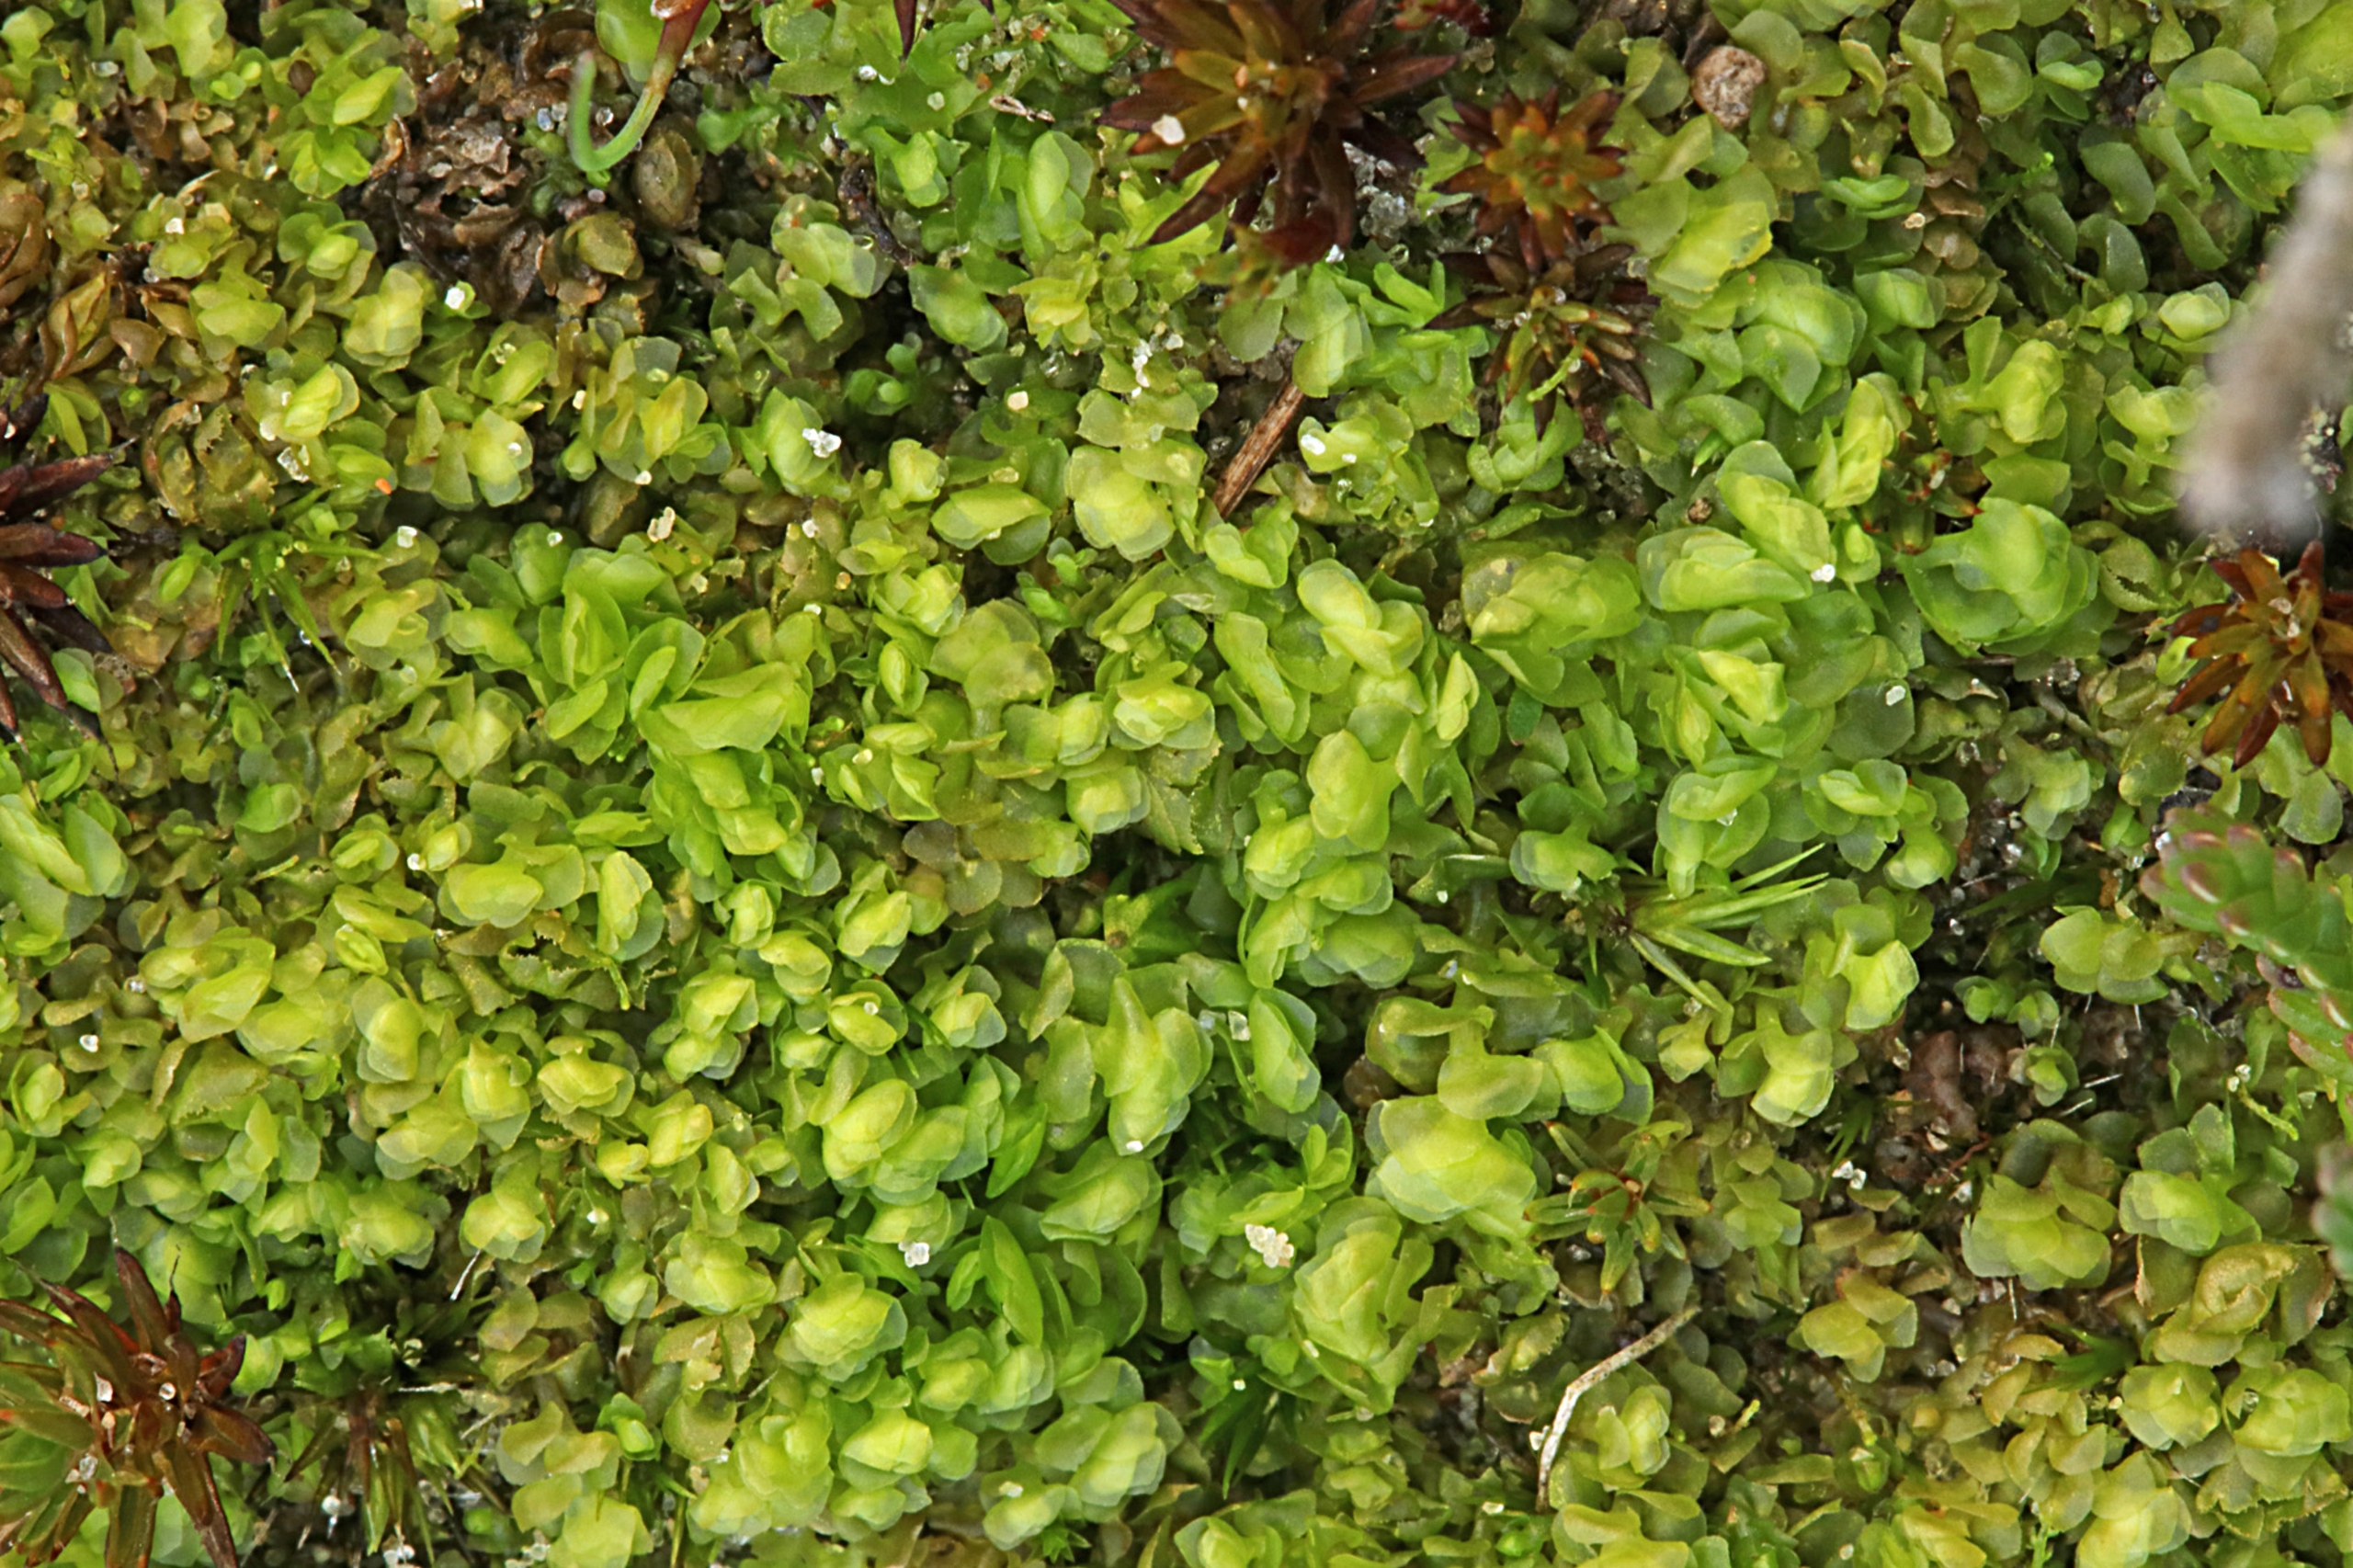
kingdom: Plantae
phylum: Marchantiophyta
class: Jungermanniopsida
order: Jungermanniales
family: Scapaniaceae
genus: Scapania
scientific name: Scapania compacta
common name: Tæt tveblad
